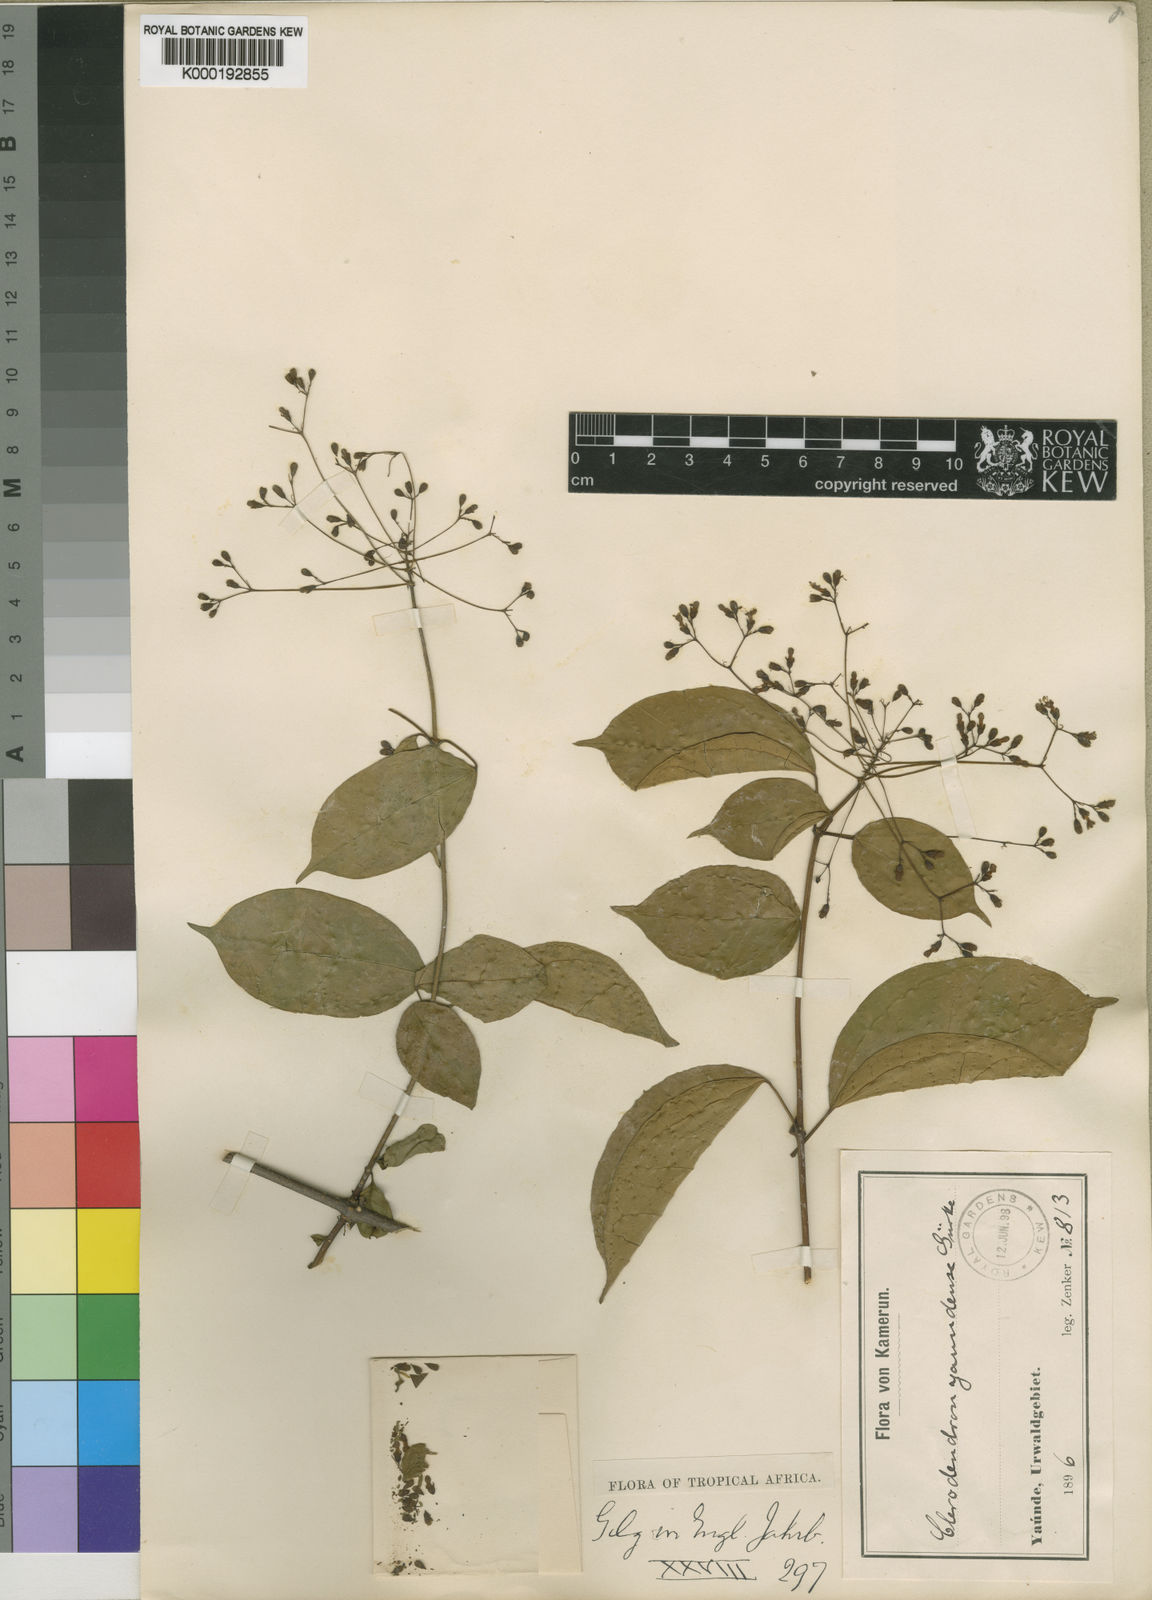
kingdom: Plantae
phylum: Tracheophyta
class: Magnoliopsida
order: Lamiales
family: Lamiaceae
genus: Clerodendrum
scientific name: Clerodendrum
